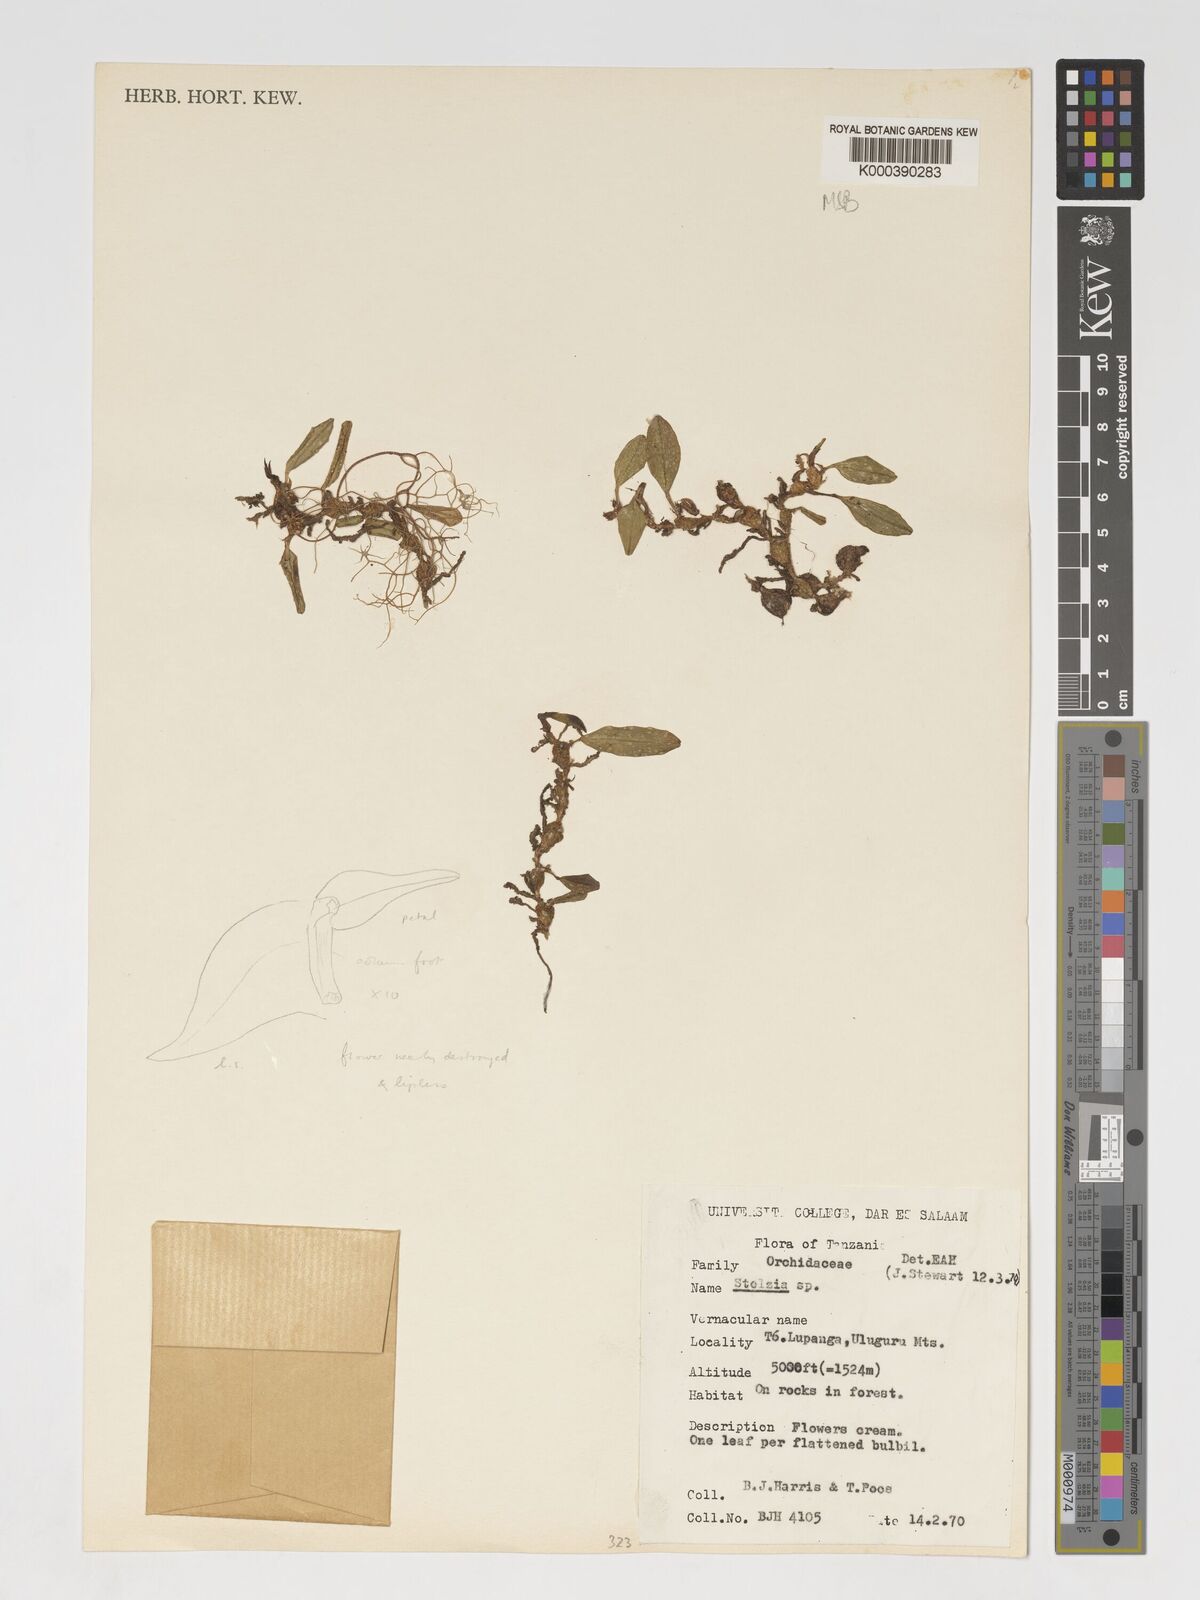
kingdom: Plantae
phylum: Tracheophyta
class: Liliopsida
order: Asparagales
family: Orchidaceae
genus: Porpax
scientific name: Porpax moniliformis
